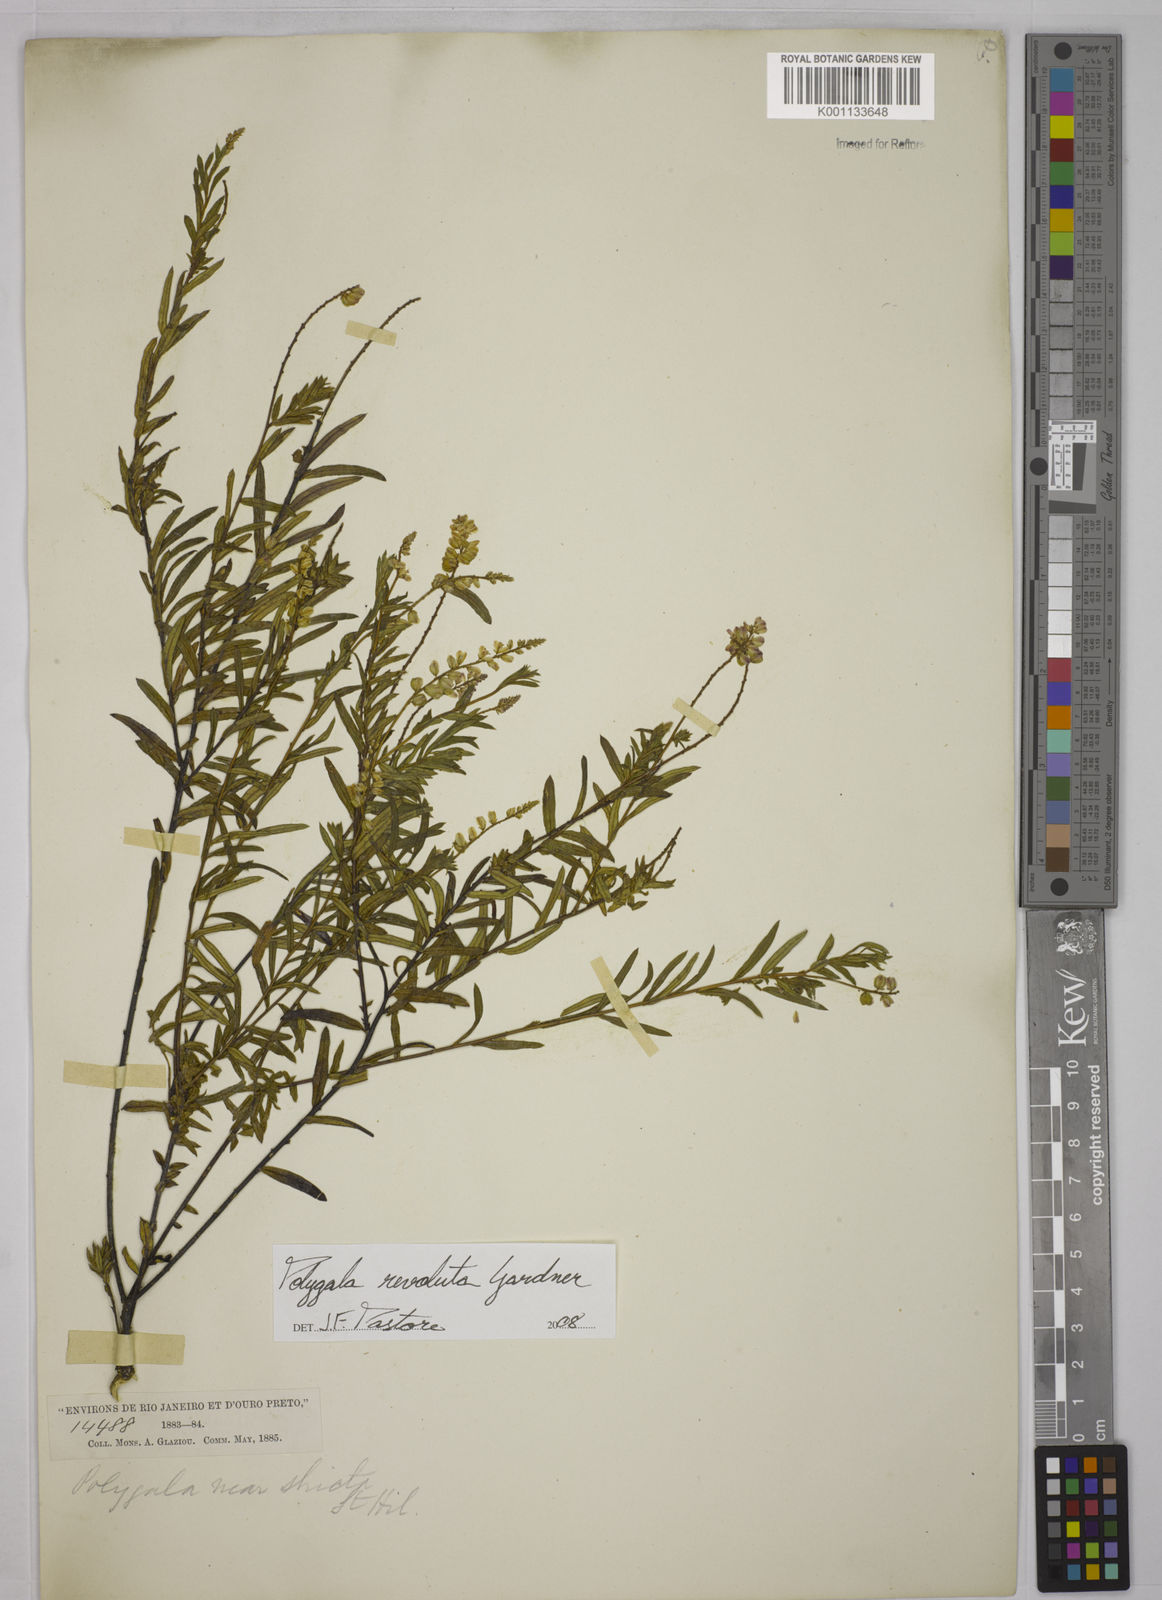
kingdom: Plantae
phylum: Tracheophyta
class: Magnoliopsida
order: Fabales
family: Polygalaceae
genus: Polygala
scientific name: Polygala revoluta
